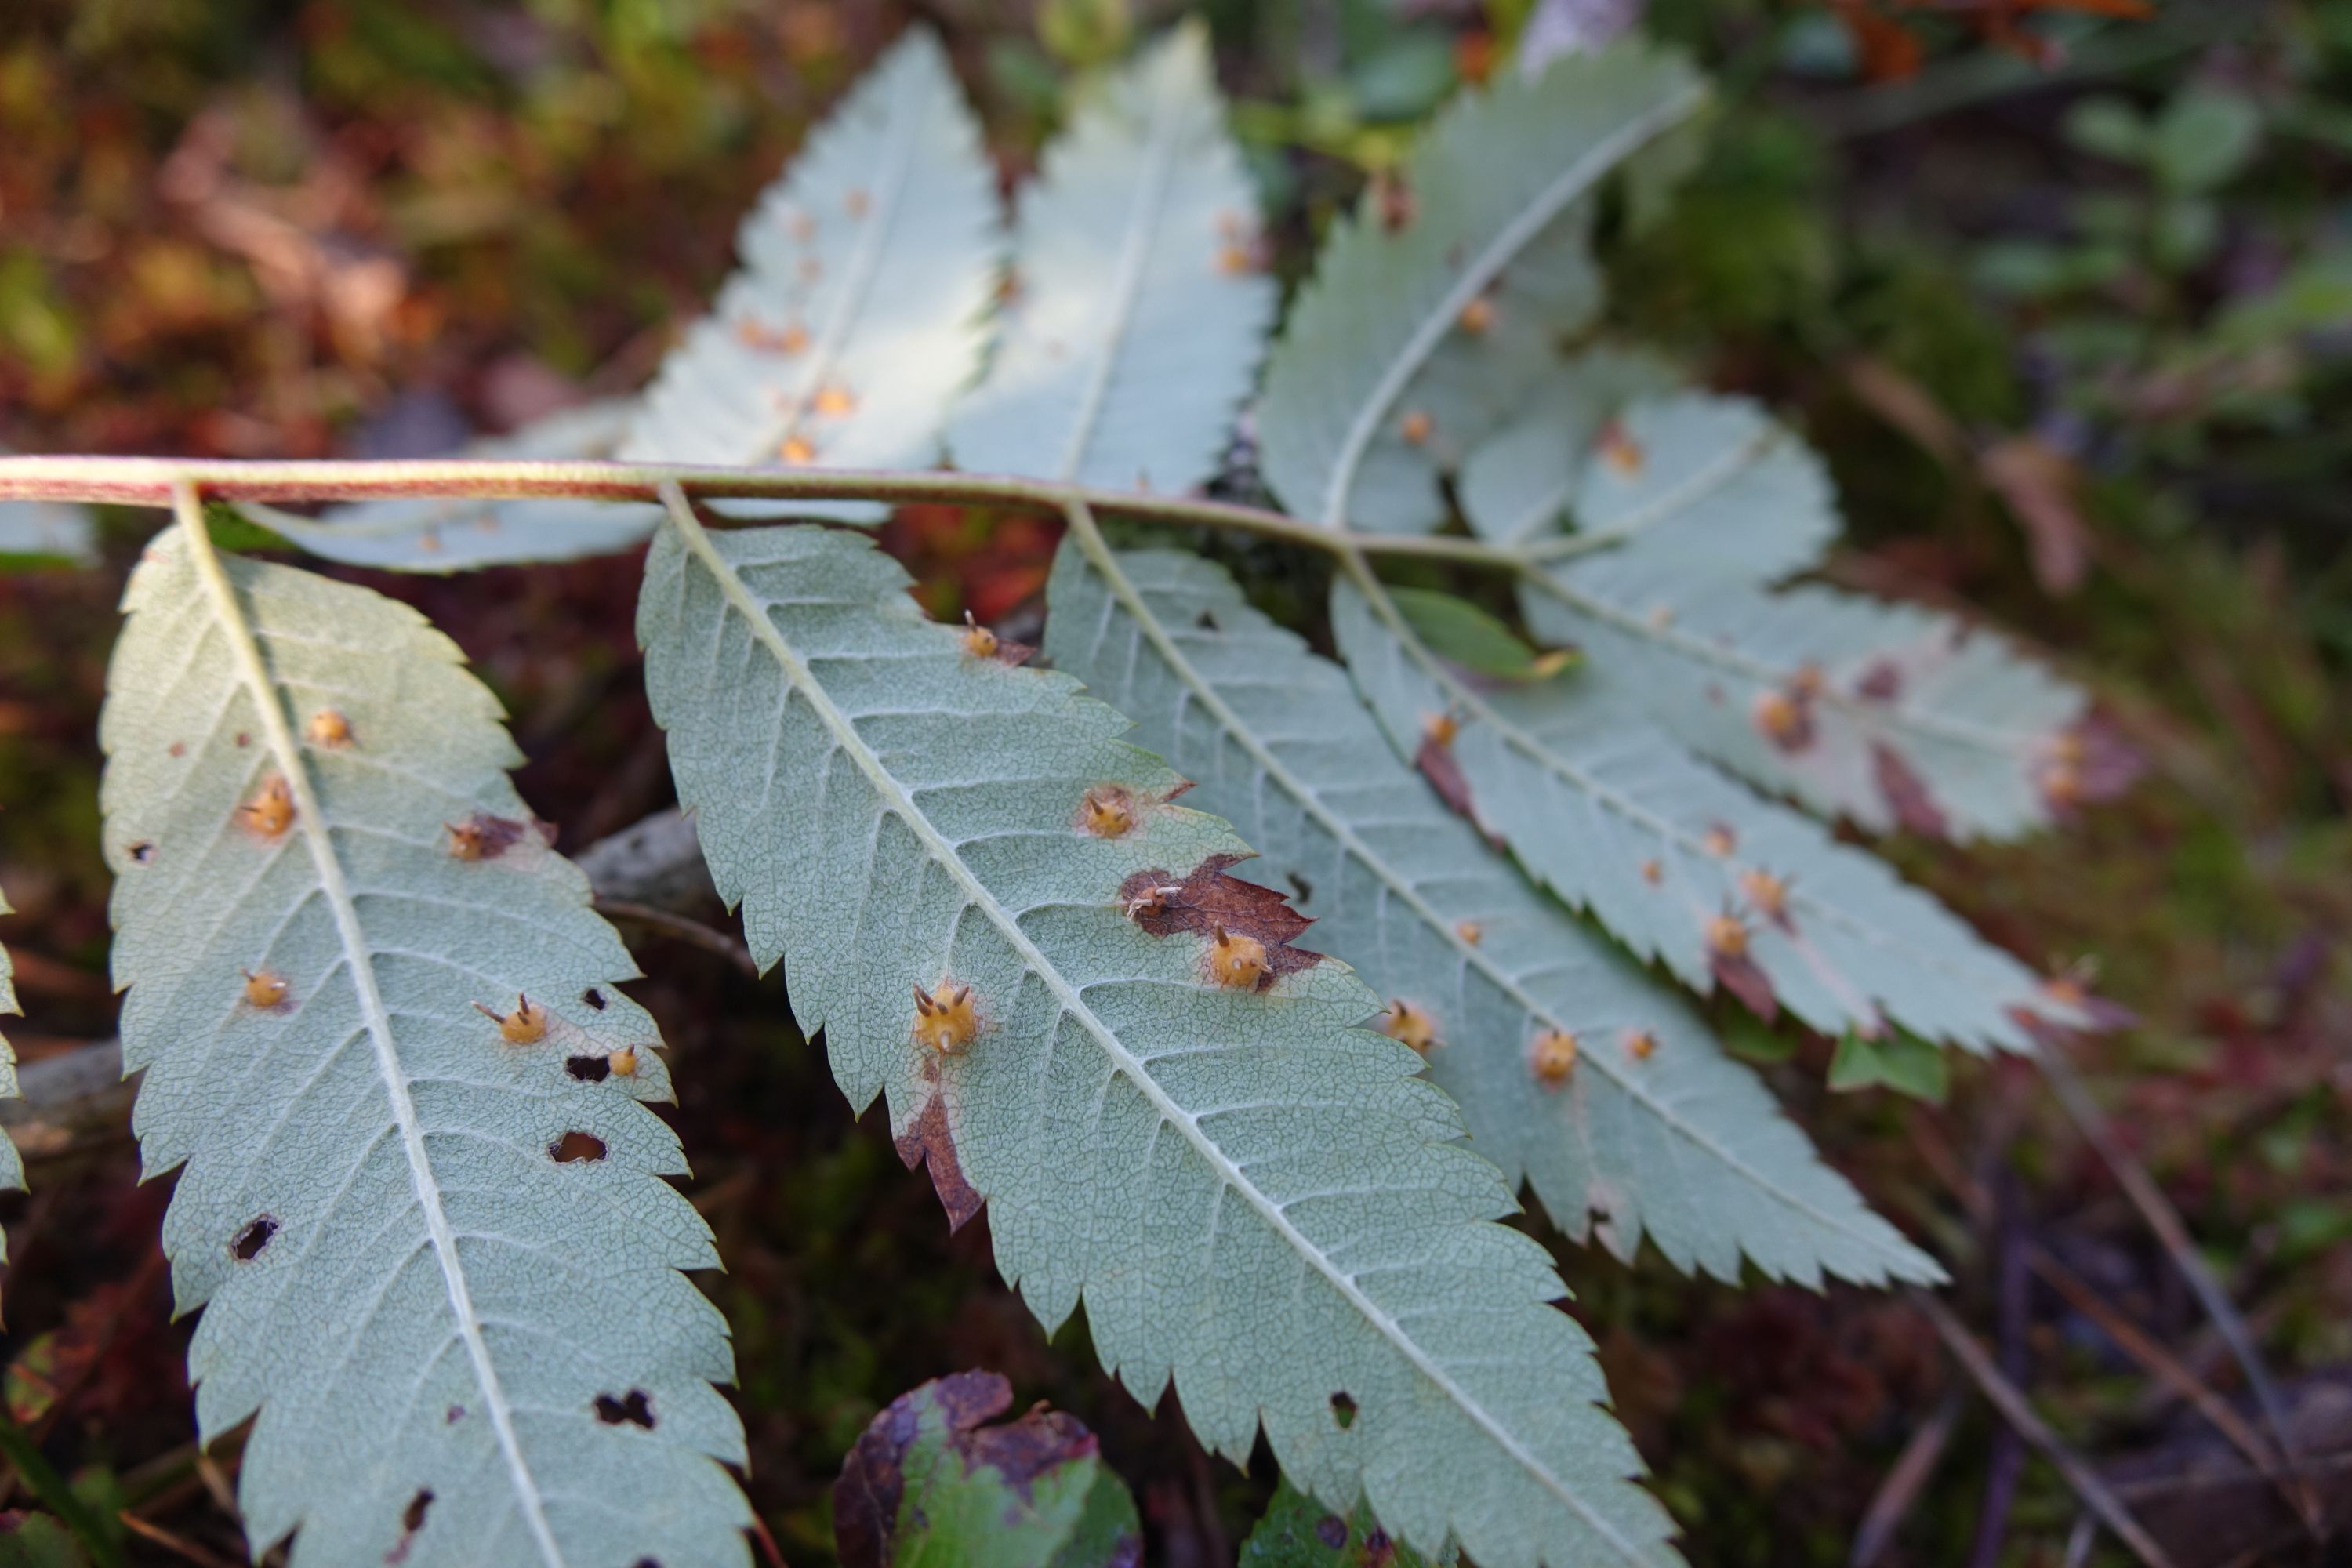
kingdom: Fungi
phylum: Basidiomycota
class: Pucciniomycetes
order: Pucciniales
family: Gymnosporangiaceae
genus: Gymnosporangium
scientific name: Gymnosporangium cornutum
